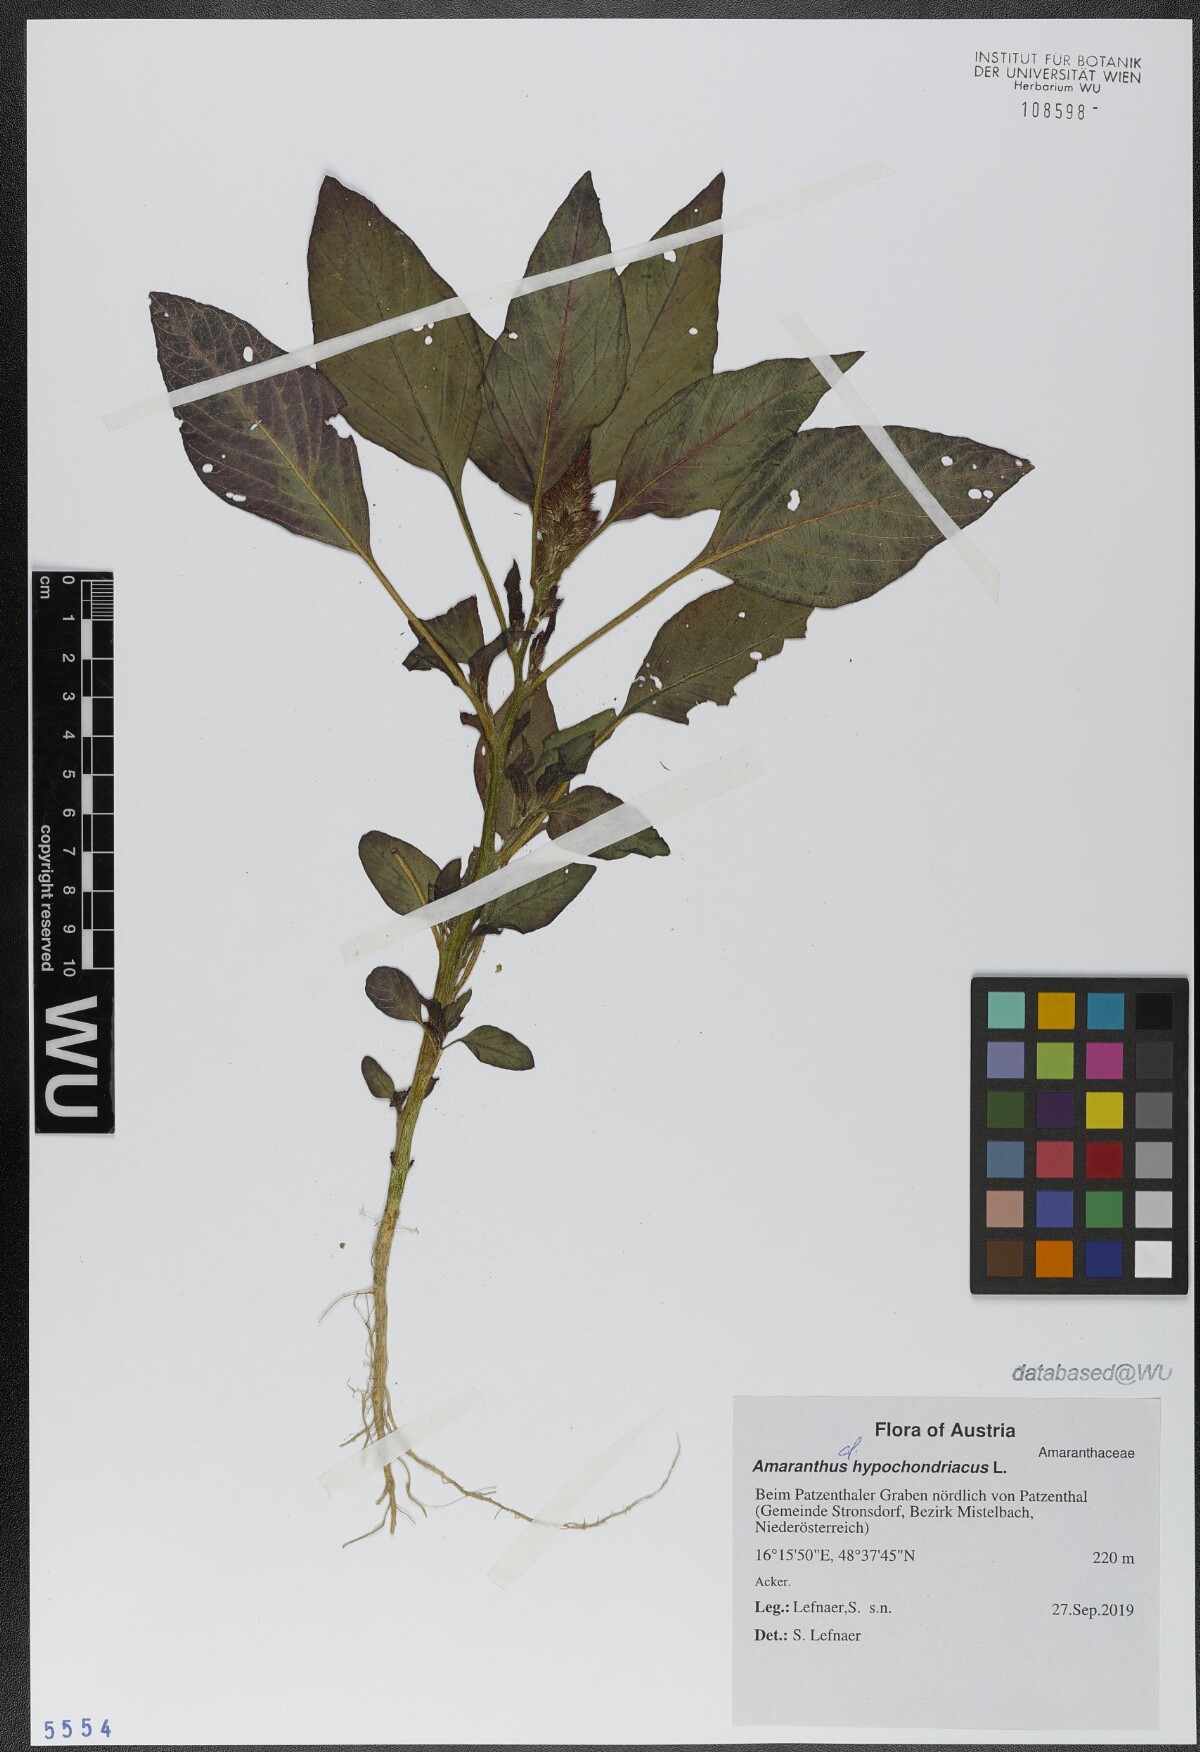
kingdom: Plantae
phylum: Tracheophyta
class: Magnoliopsida
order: Caryophyllales
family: Amaranthaceae
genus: Amaranthus
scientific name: Amaranthus hypochondriacus
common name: Prince's-feather
